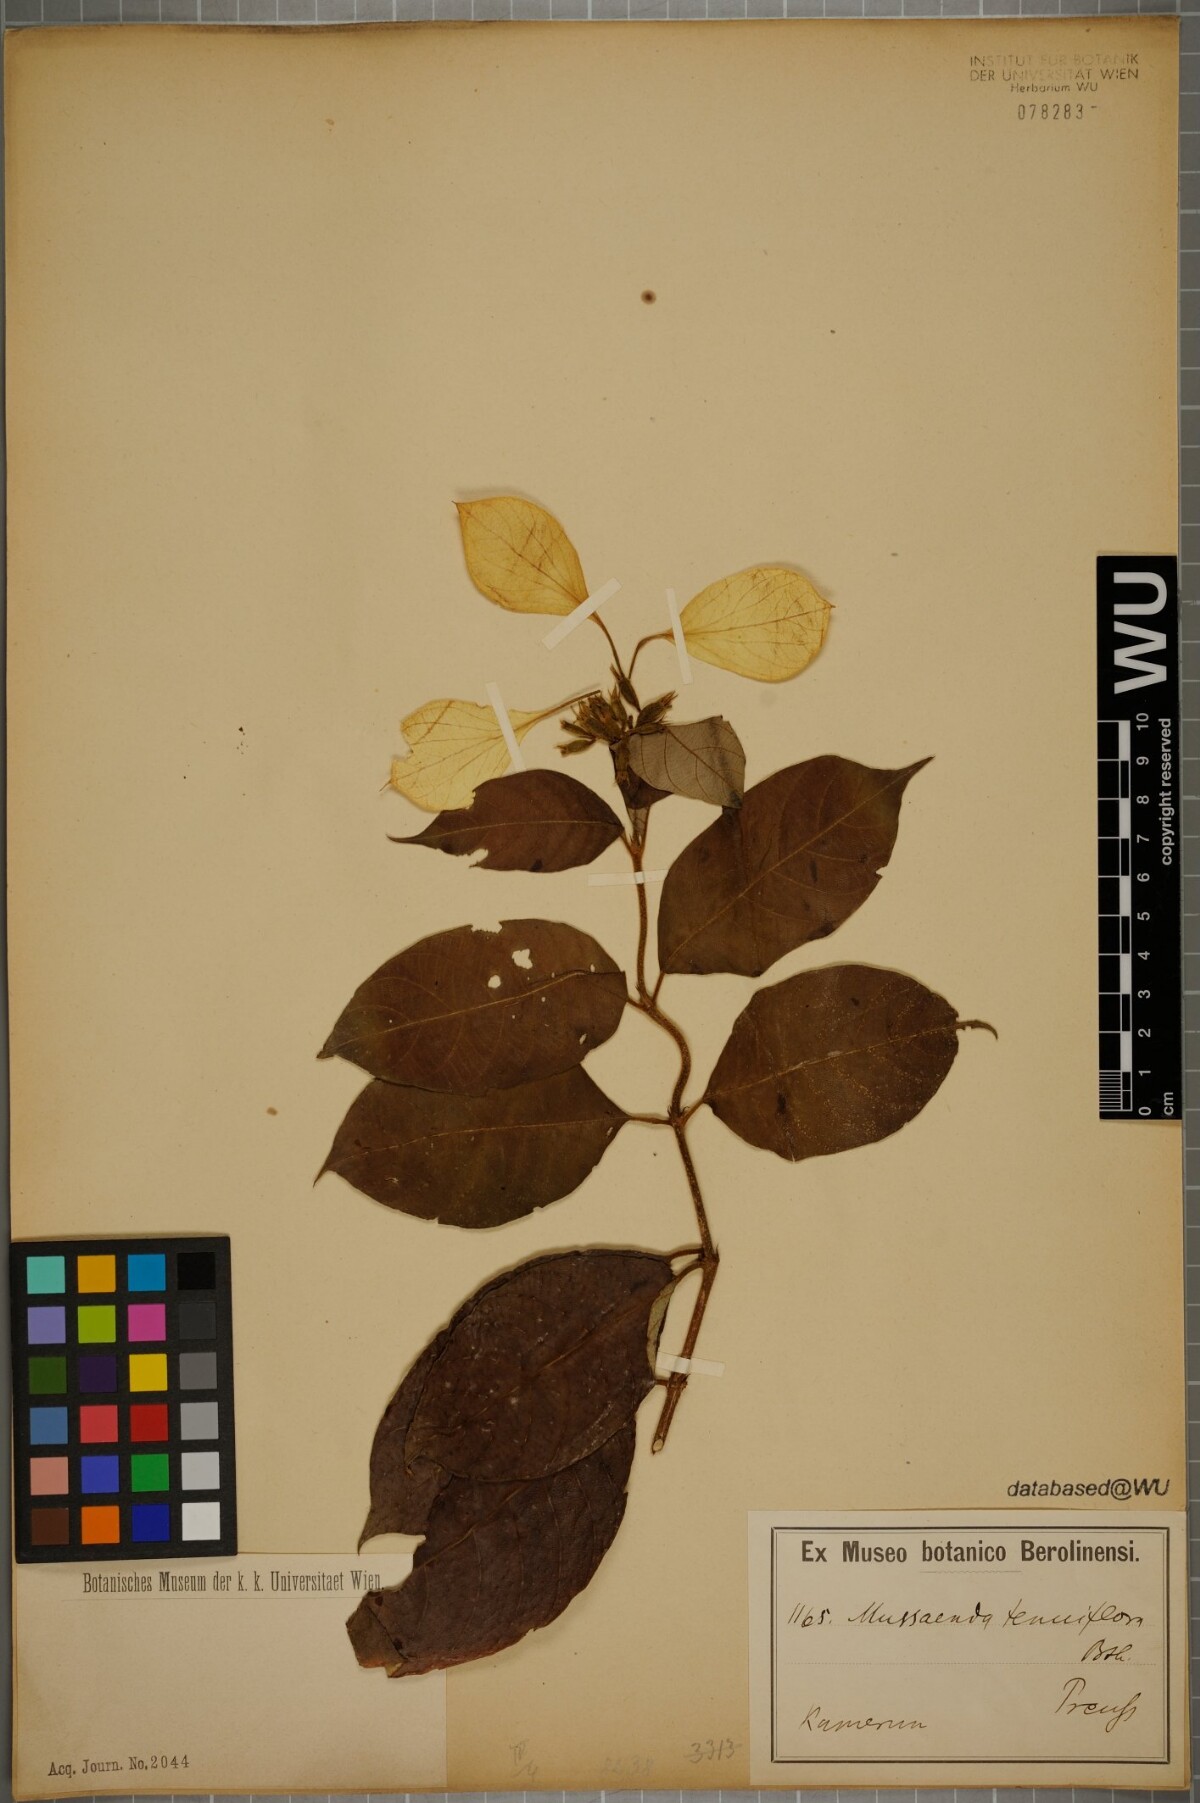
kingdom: Plantae
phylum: Tracheophyta
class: Magnoliopsida
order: Gentianales
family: Rubiaceae
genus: Mussaenda
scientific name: Mussaenda tenuiflora
